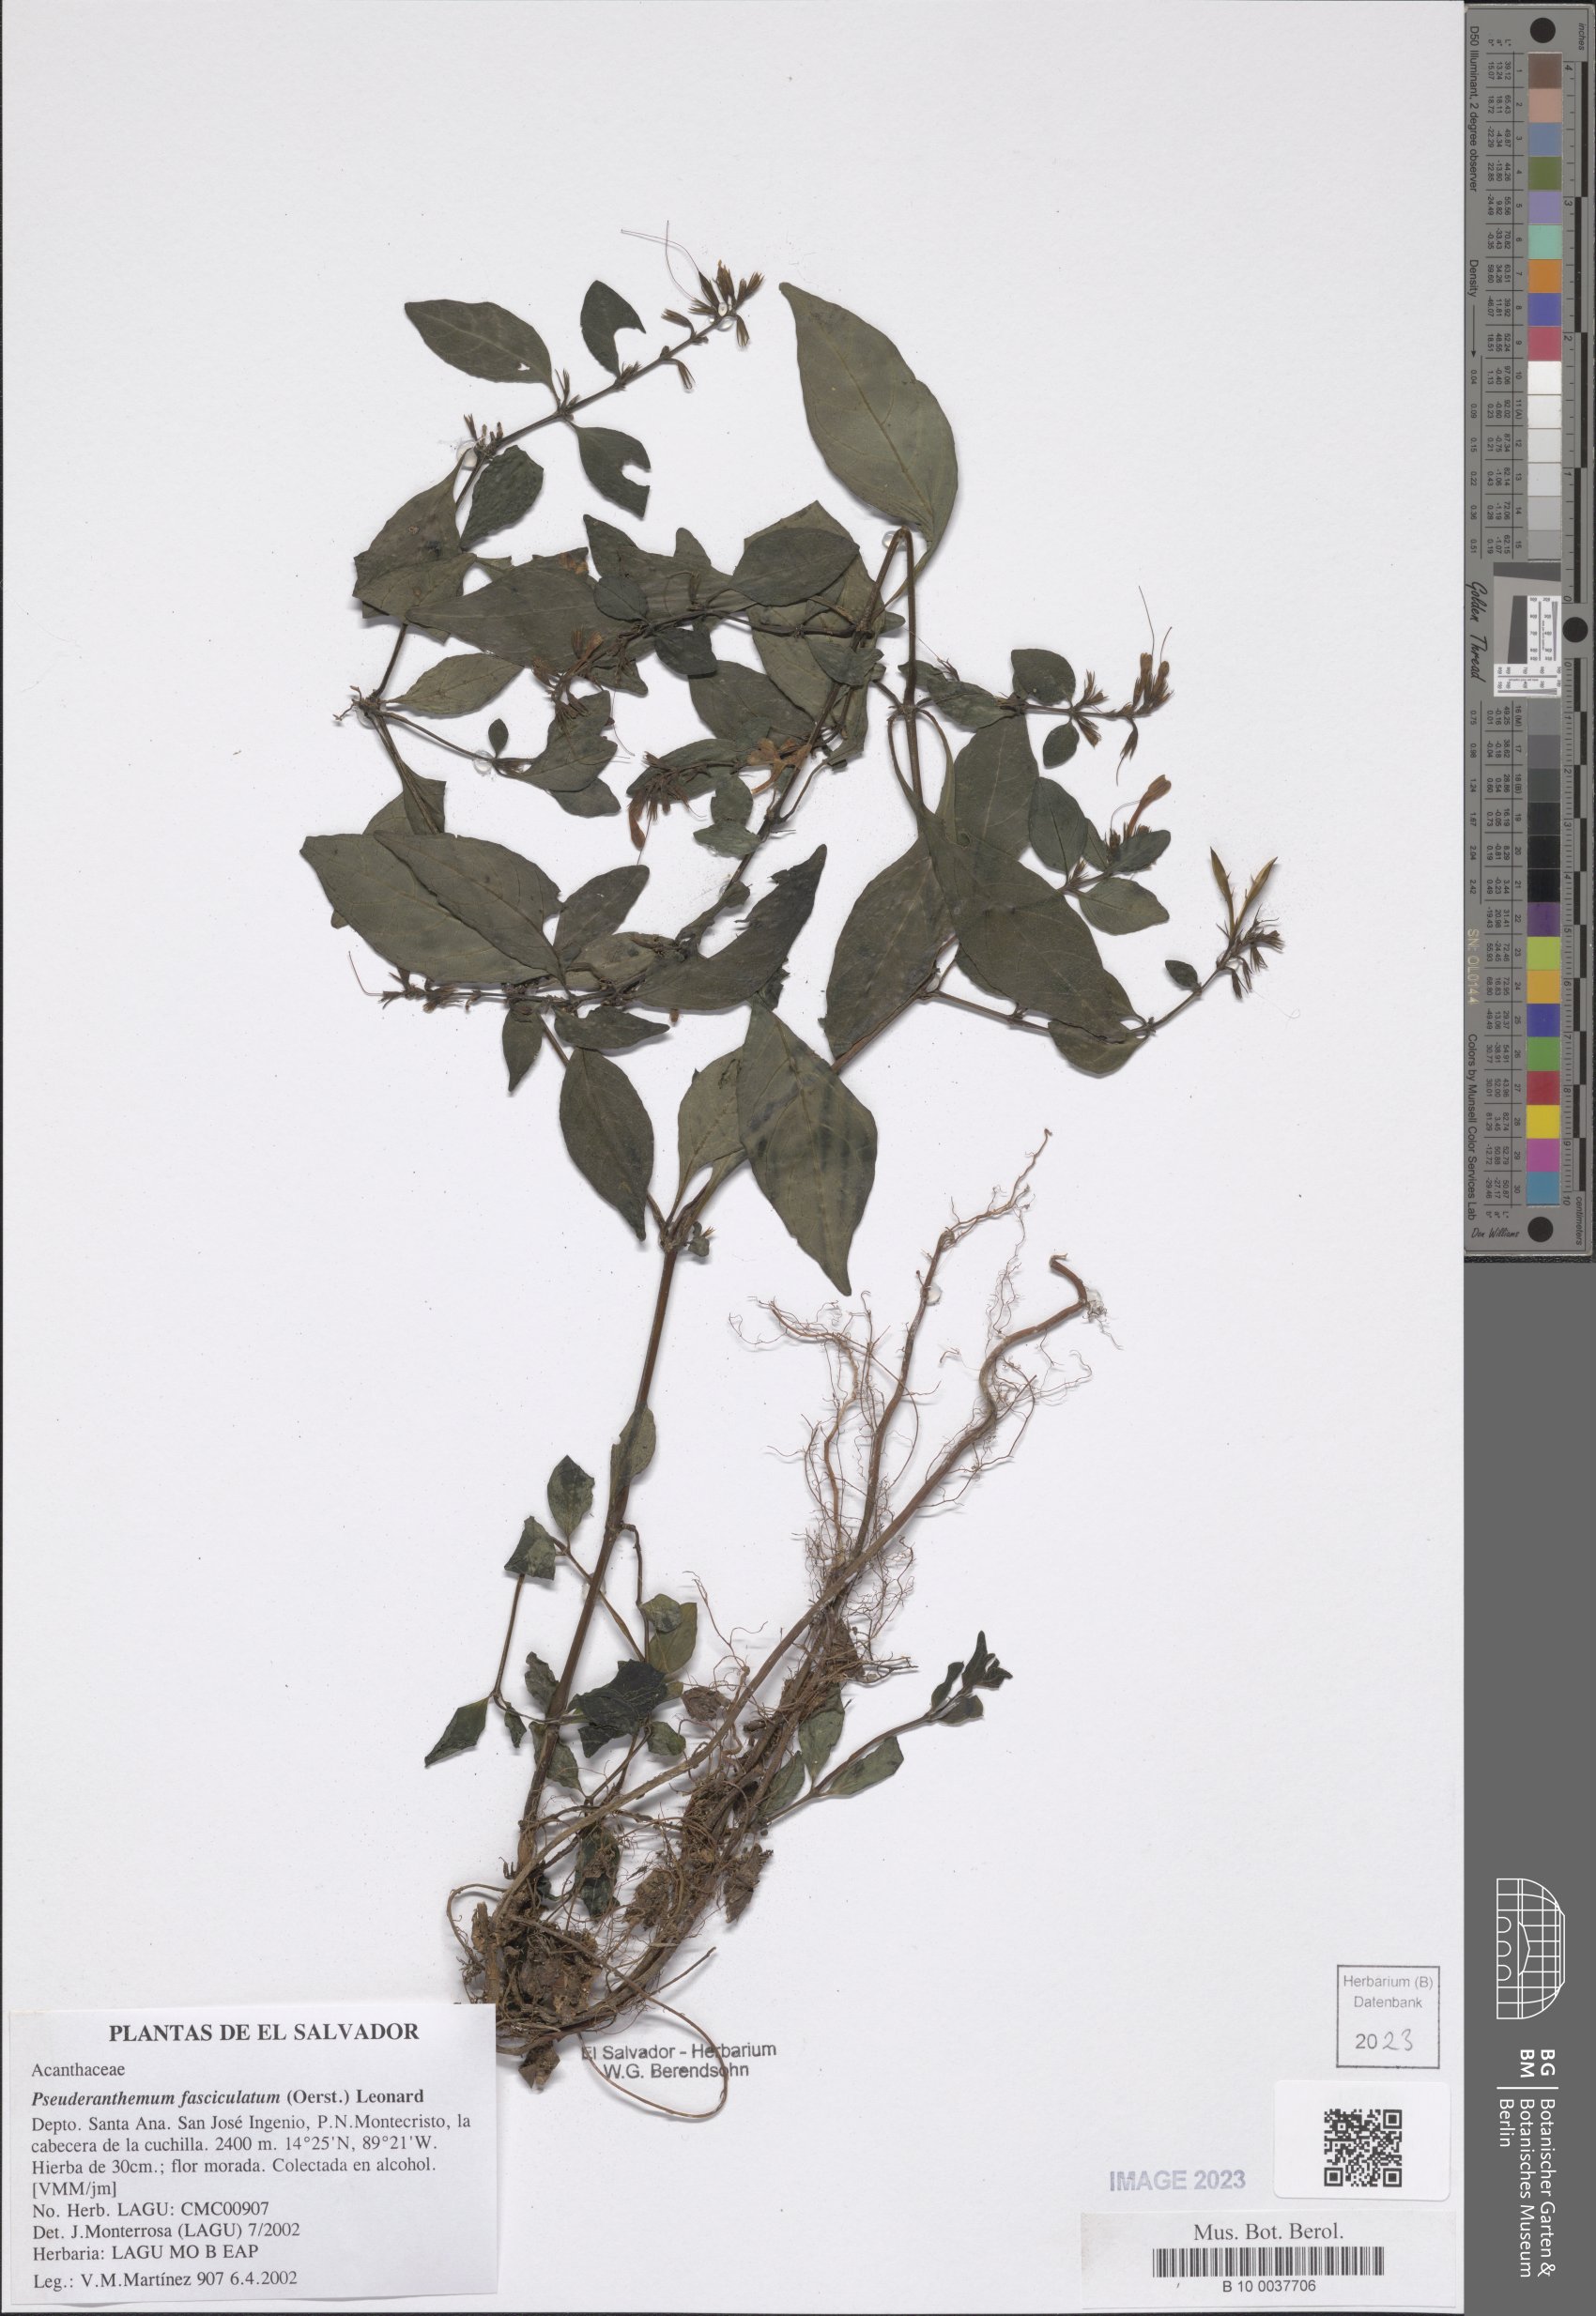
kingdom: Plantae
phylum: Tracheophyta
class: Magnoliopsida
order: Lamiales
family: Acanthaceae
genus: Pseuderanthemum
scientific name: Pseuderanthemum fasciculatum
